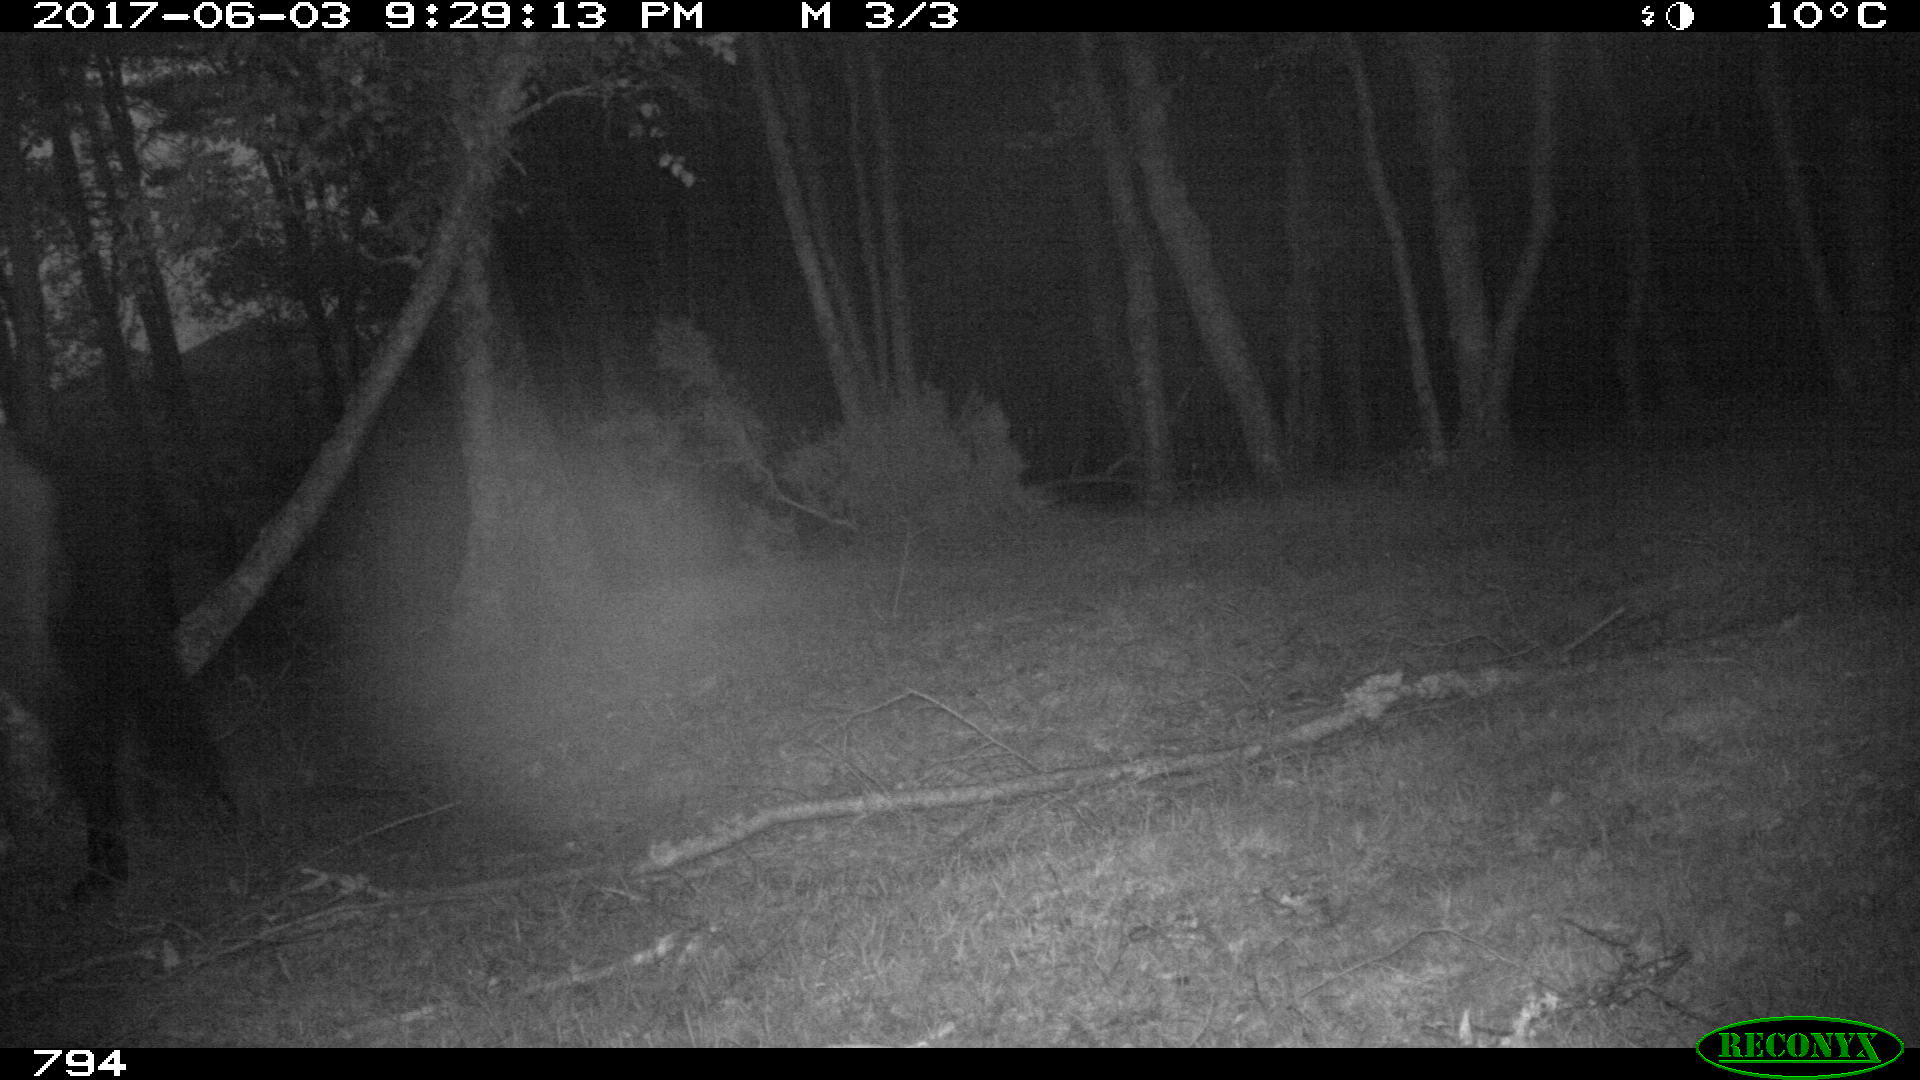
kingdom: Animalia
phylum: Chordata
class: Mammalia
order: Perissodactyla
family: Equidae
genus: Equus
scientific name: Equus caballus
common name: Horse
